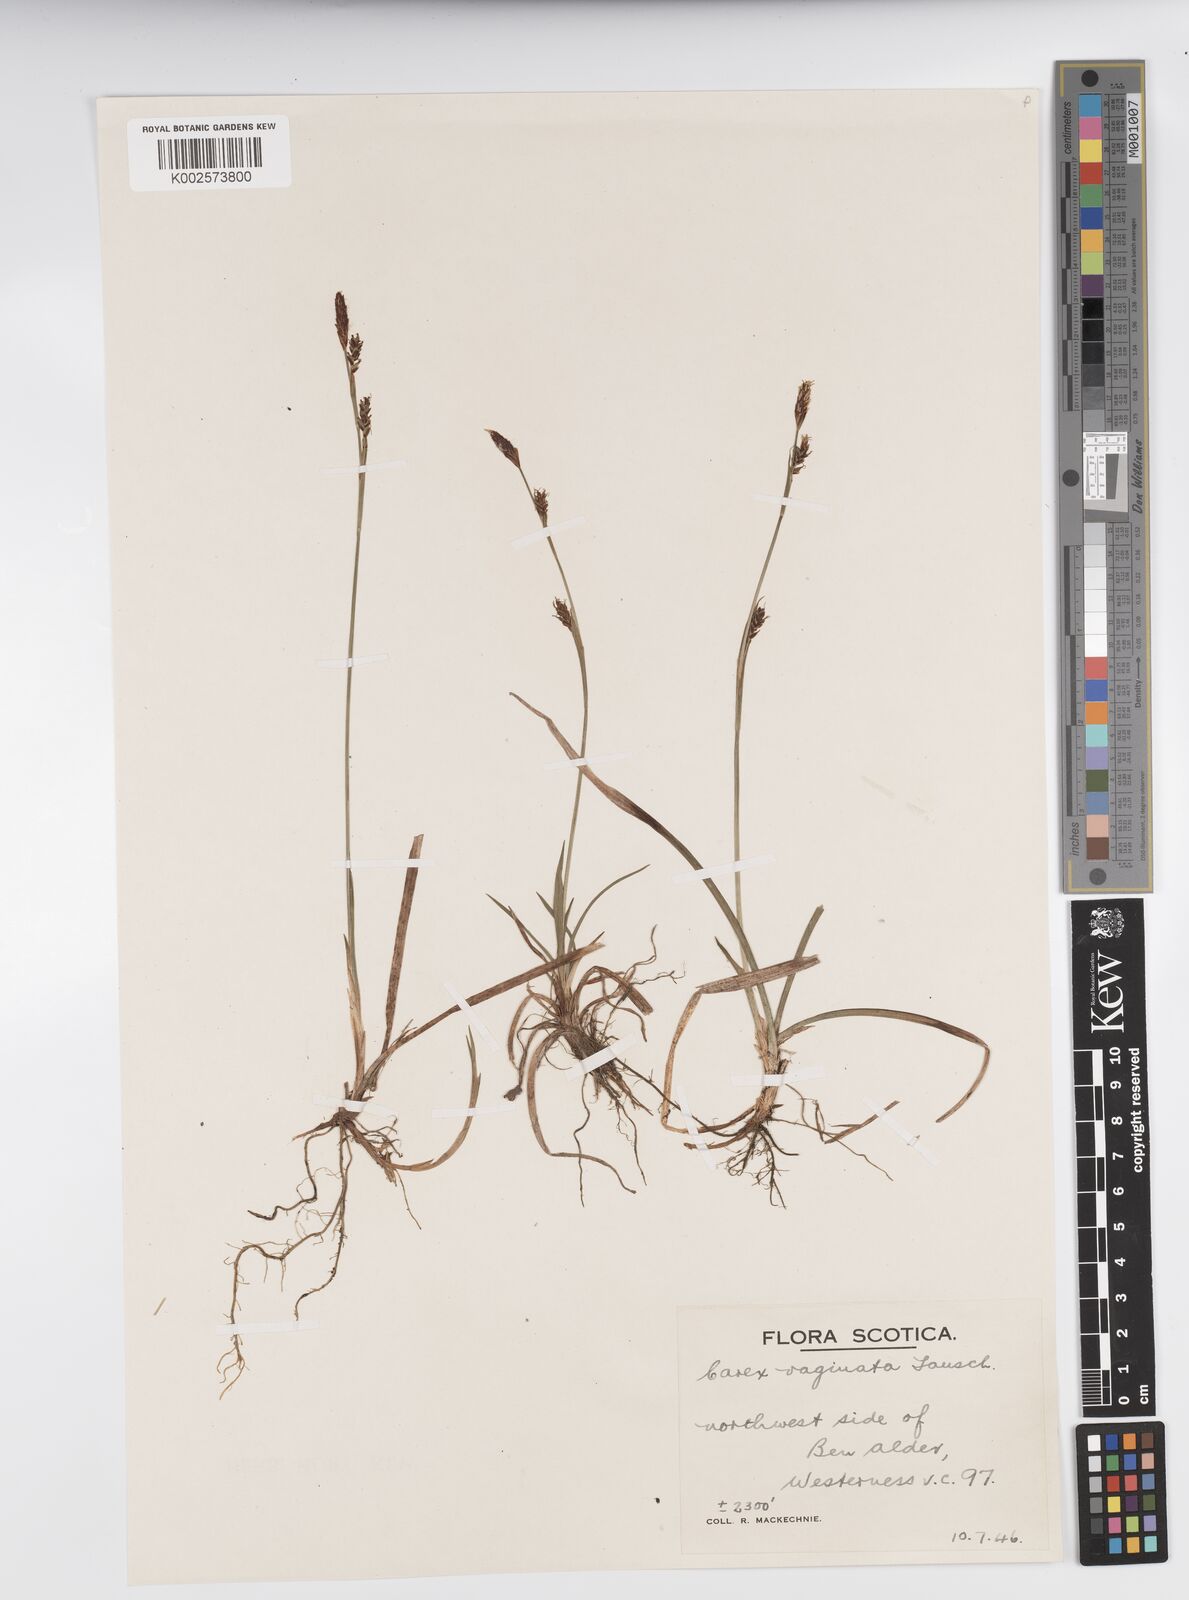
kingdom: Plantae
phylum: Tracheophyta
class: Liliopsida
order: Poales
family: Cyperaceae
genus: Carex
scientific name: Carex vaginata
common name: Sheathed sedge
